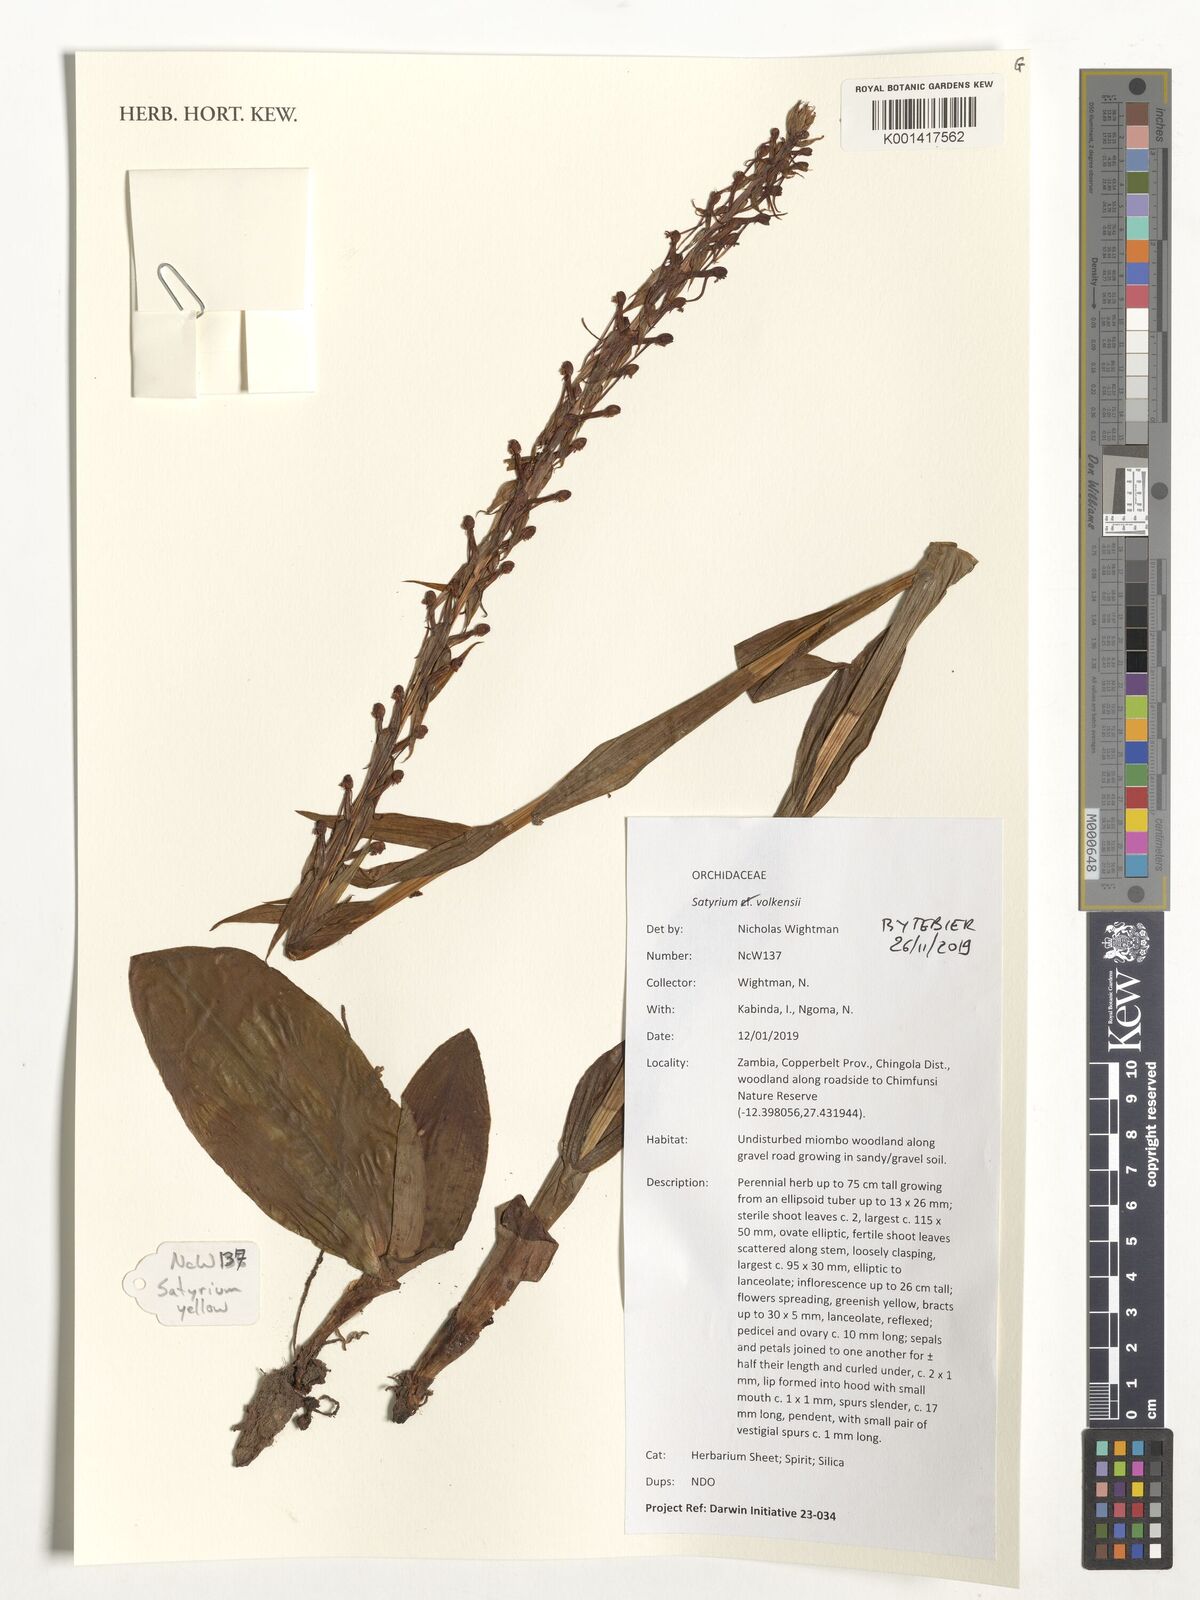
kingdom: Plantae
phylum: Tracheophyta
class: Liliopsida
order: Asparagales
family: Orchidaceae
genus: Satyrium
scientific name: Satyrium volkensii
